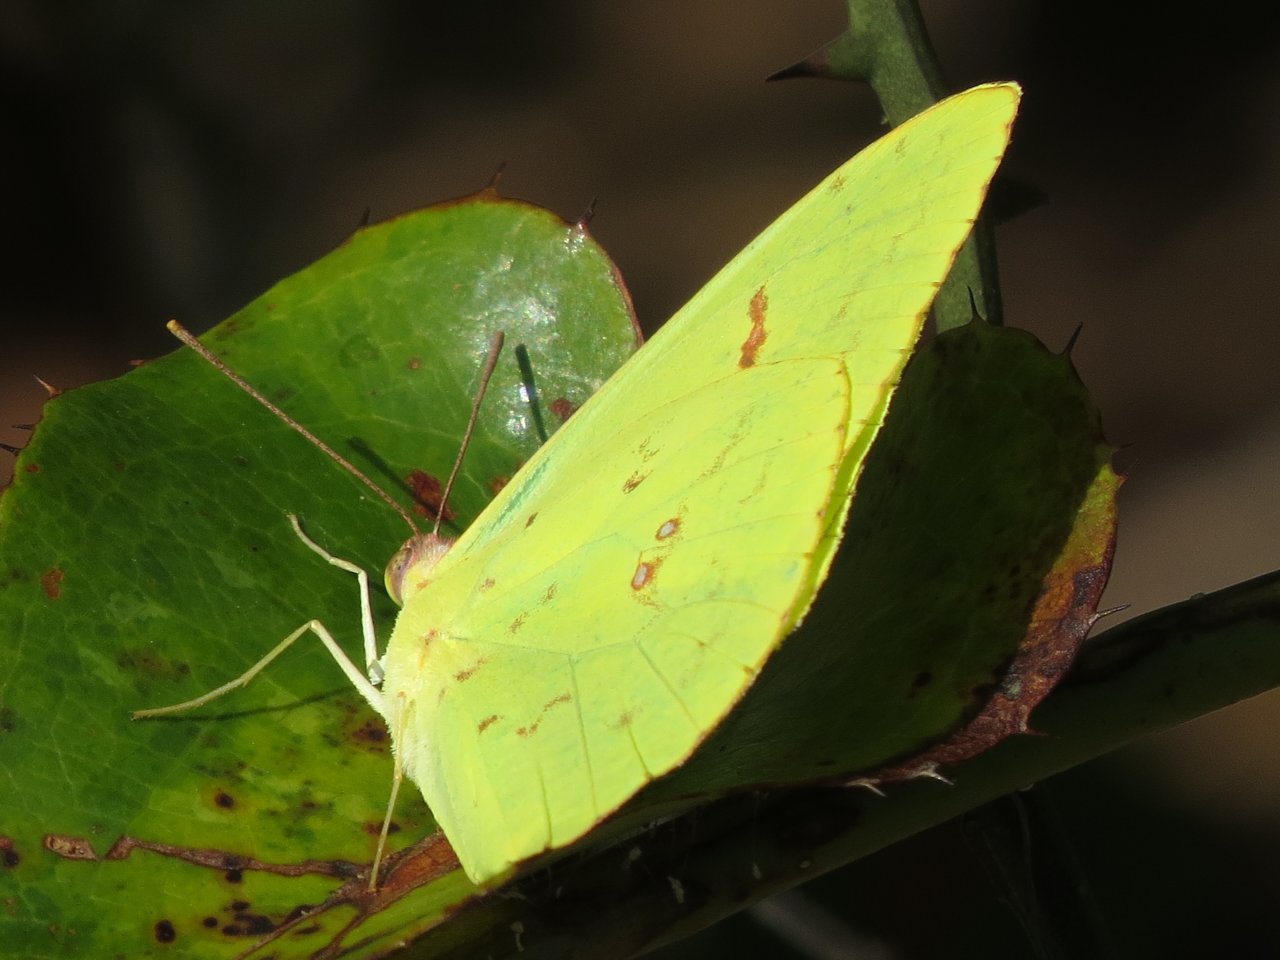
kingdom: Animalia
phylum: Arthropoda
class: Insecta
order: Lepidoptera
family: Pieridae
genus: Phoebis
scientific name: Phoebis sennae
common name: Cloudless Sulphur
